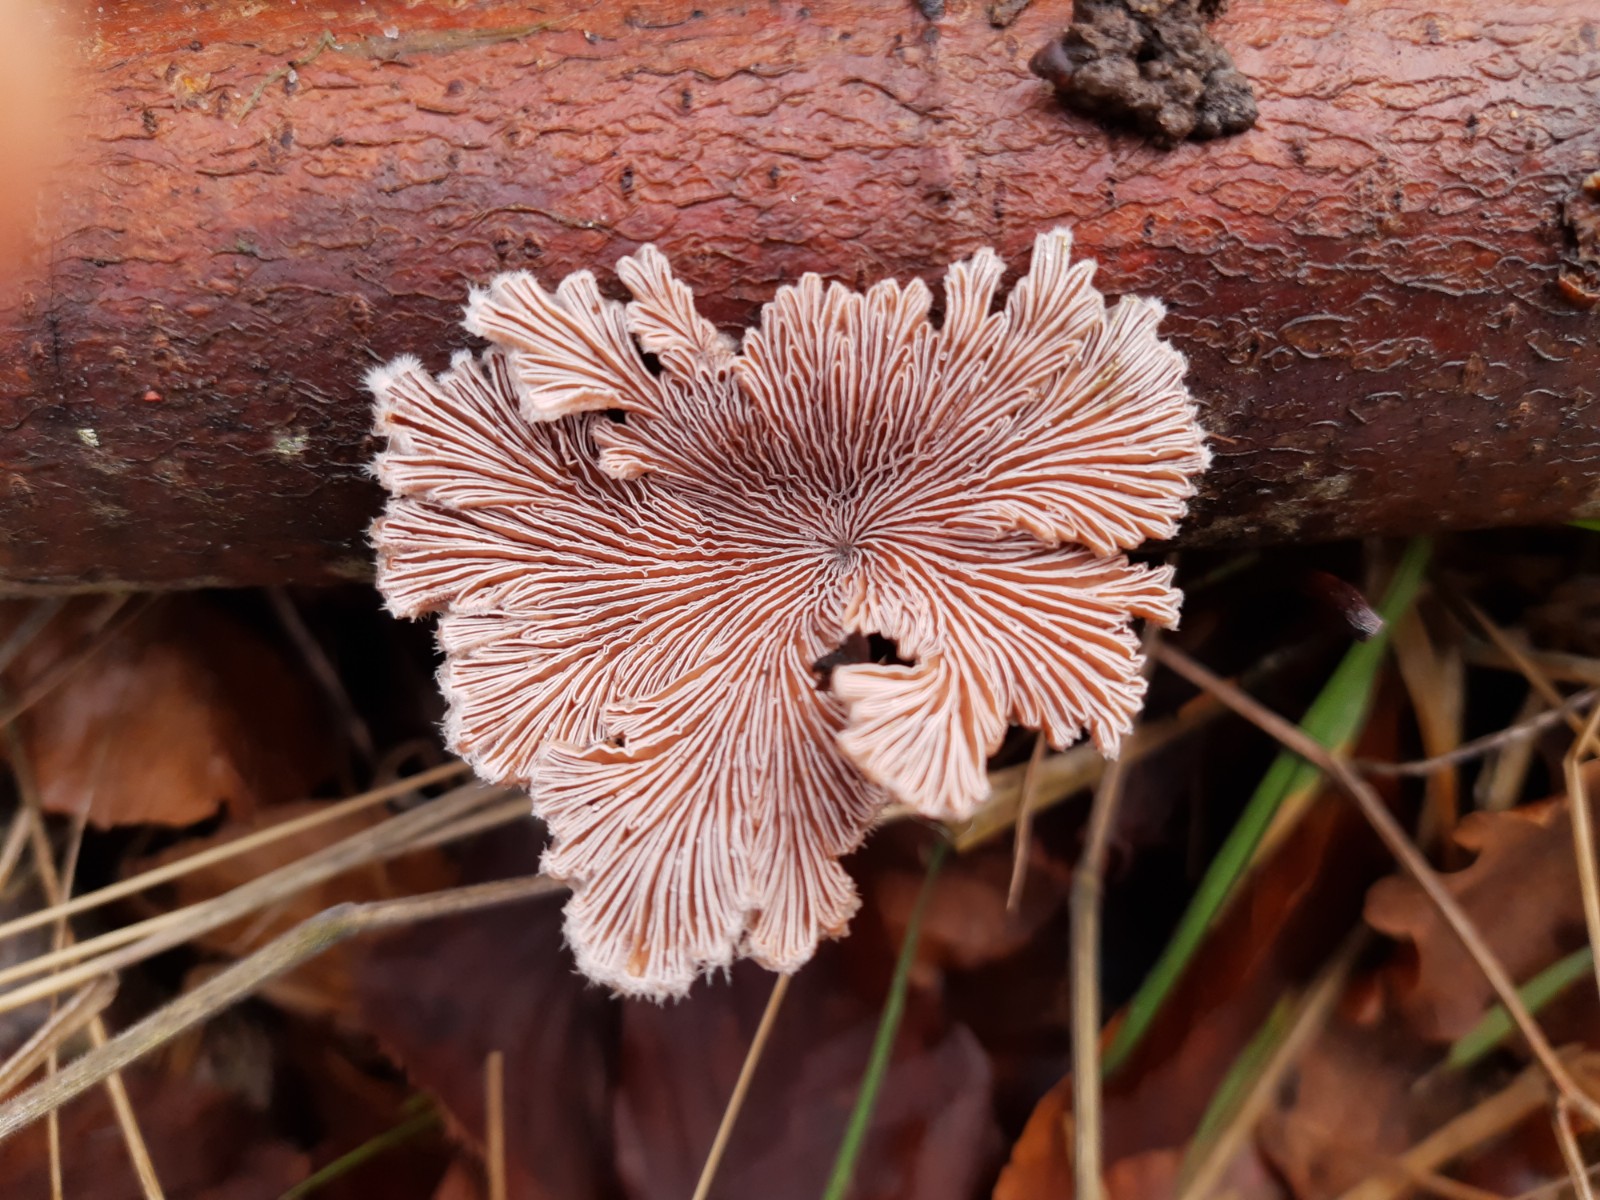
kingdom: Fungi
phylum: Basidiomycota
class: Agaricomycetes
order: Agaricales
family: Schizophyllaceae
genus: Schizophyllum
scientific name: Schizophyllum commune
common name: kløvblad
